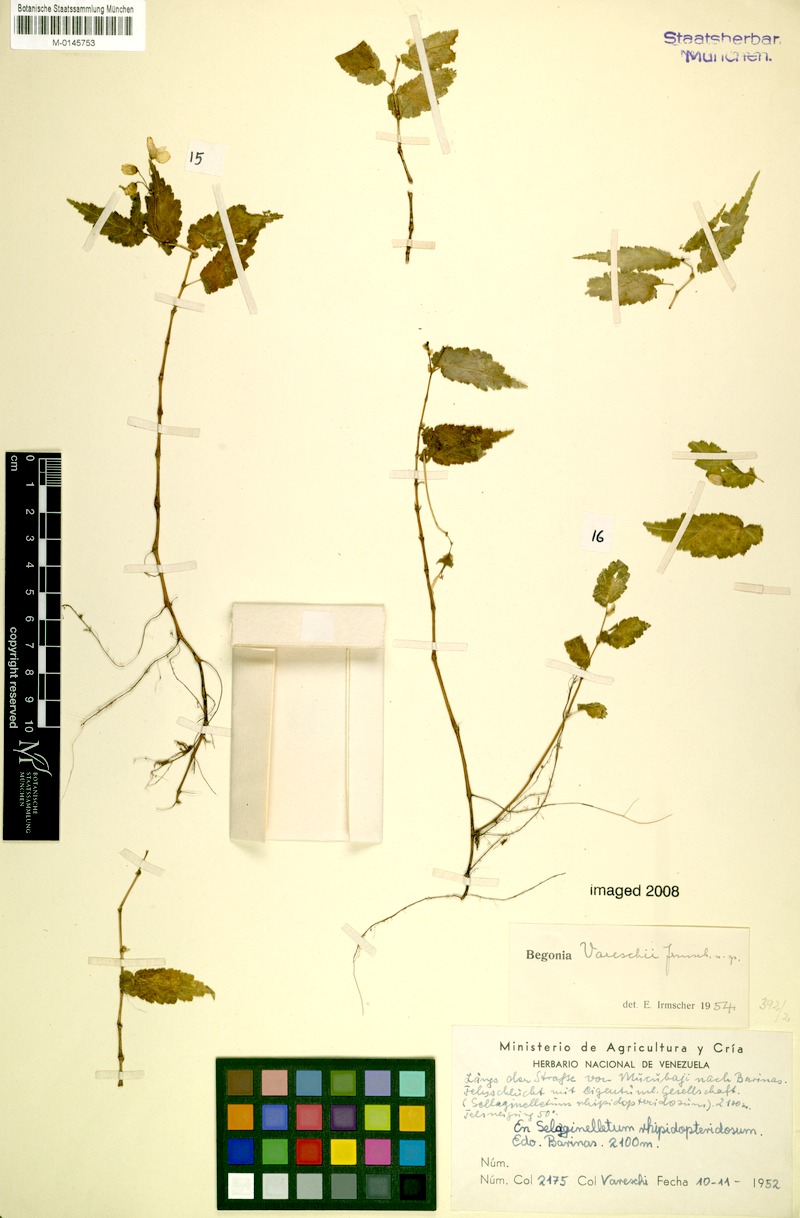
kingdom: Plantae
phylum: Tracheophyta
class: Magnoliopsida
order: Cucurbitales
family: Begoniaceae
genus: Begonia
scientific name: Begonia vareschii
